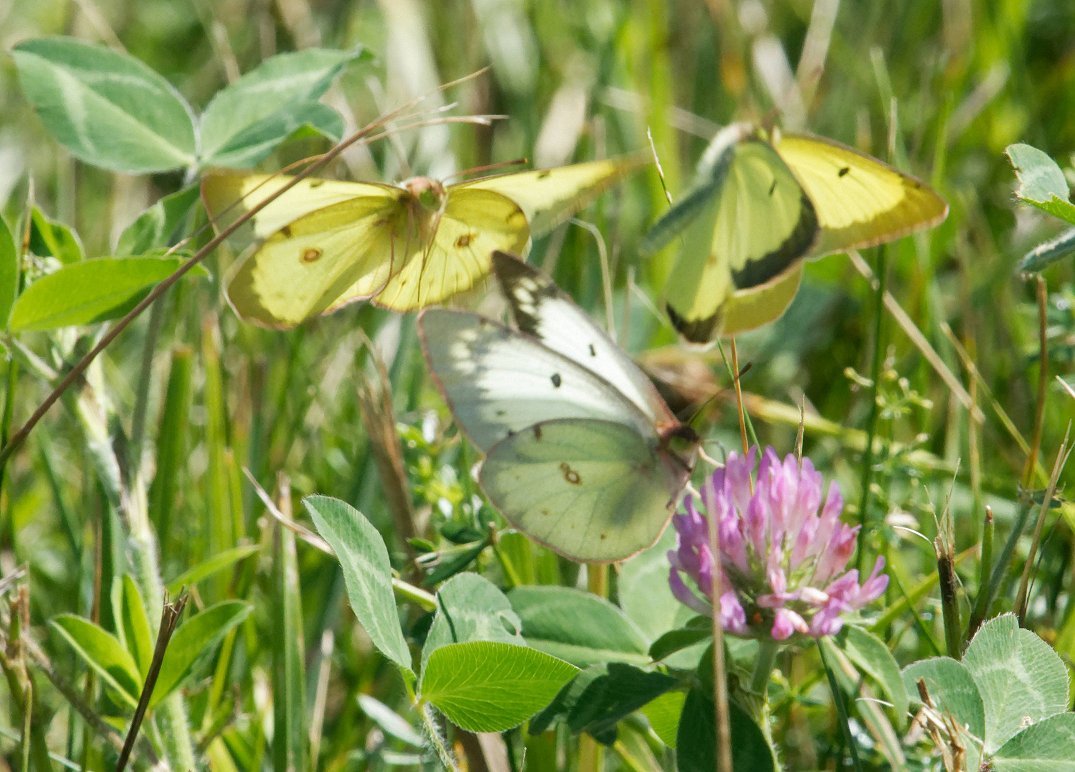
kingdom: Animalia
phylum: Arthropoda
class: Insecta
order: Lepidoptera
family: Pieridae
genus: Colias
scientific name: Colias philodice
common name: Clouded Sulphur
